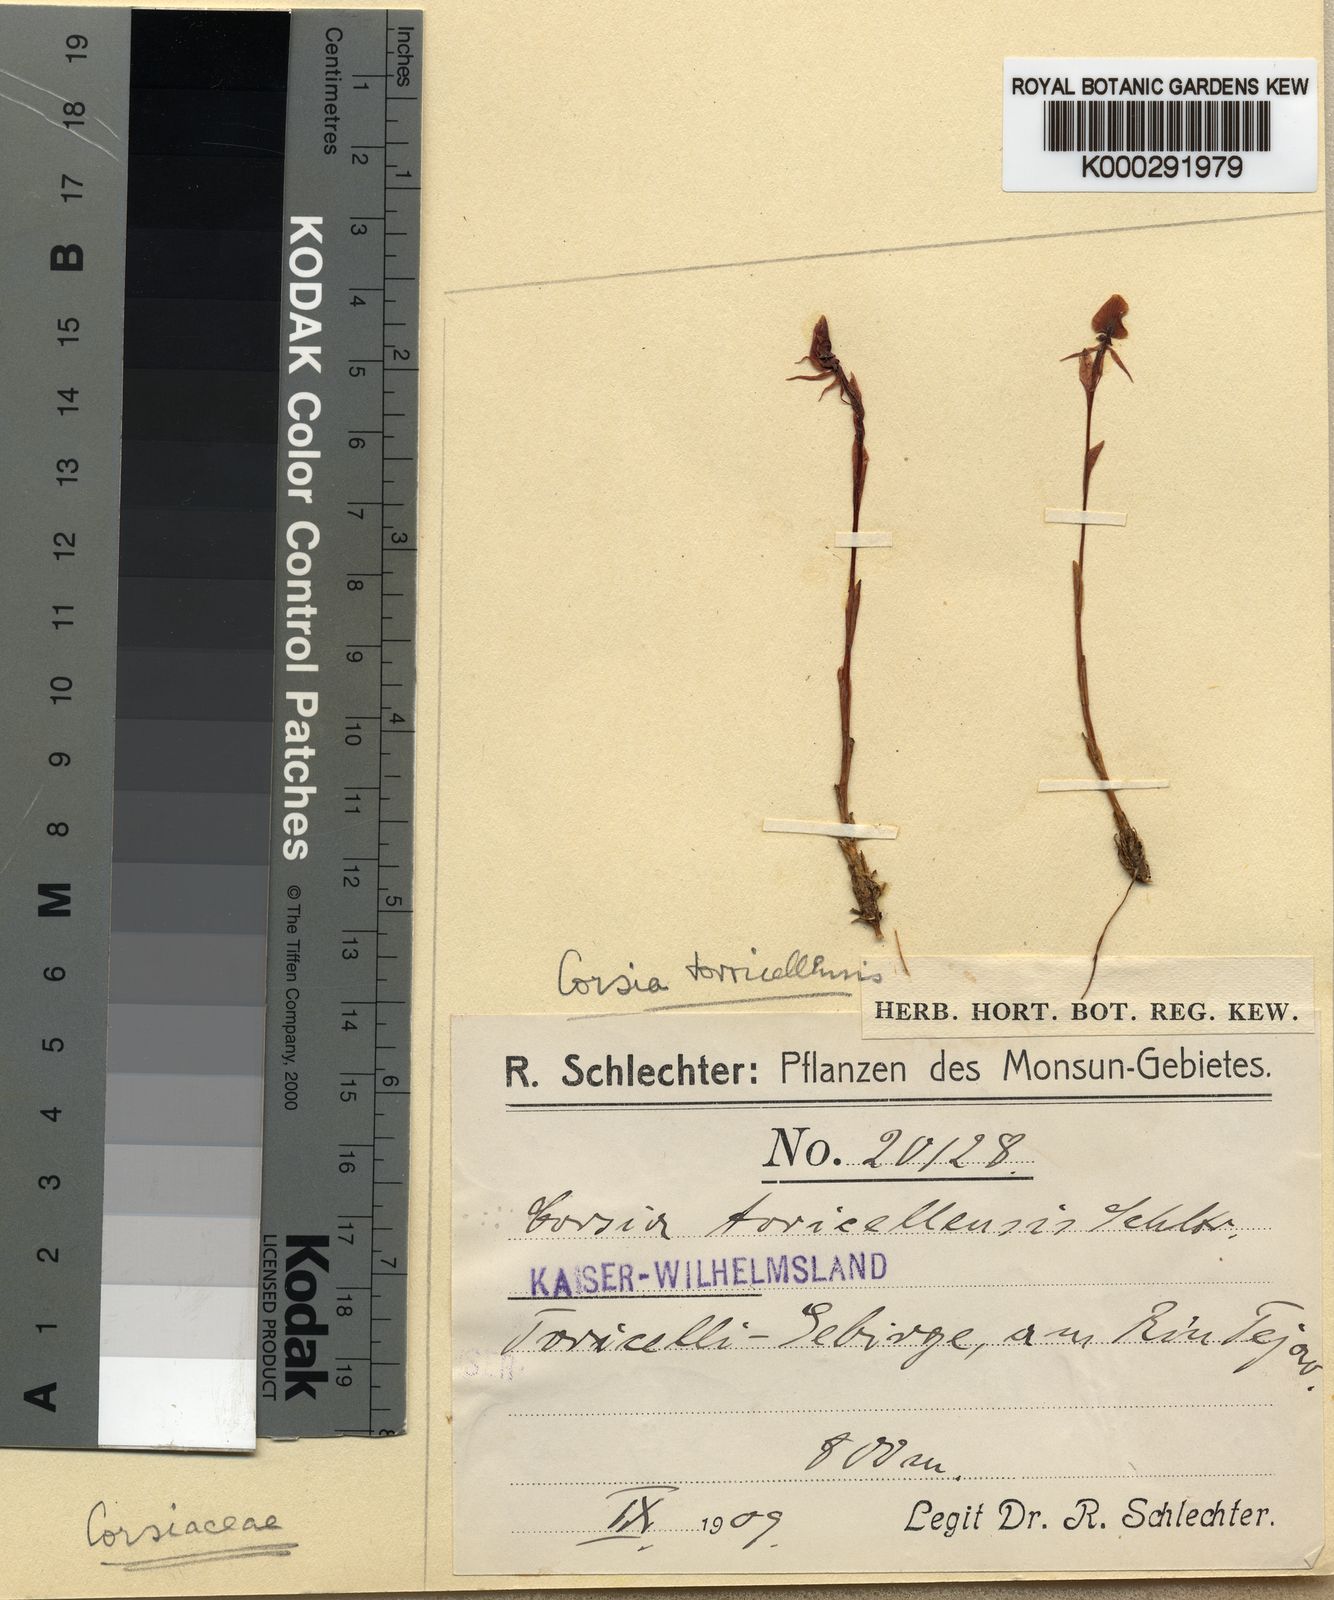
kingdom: Plantae
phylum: Tracheophyta
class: Liliopsida
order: Liliales
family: Corsiaceae
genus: Corsia
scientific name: Corsia torricellensis
